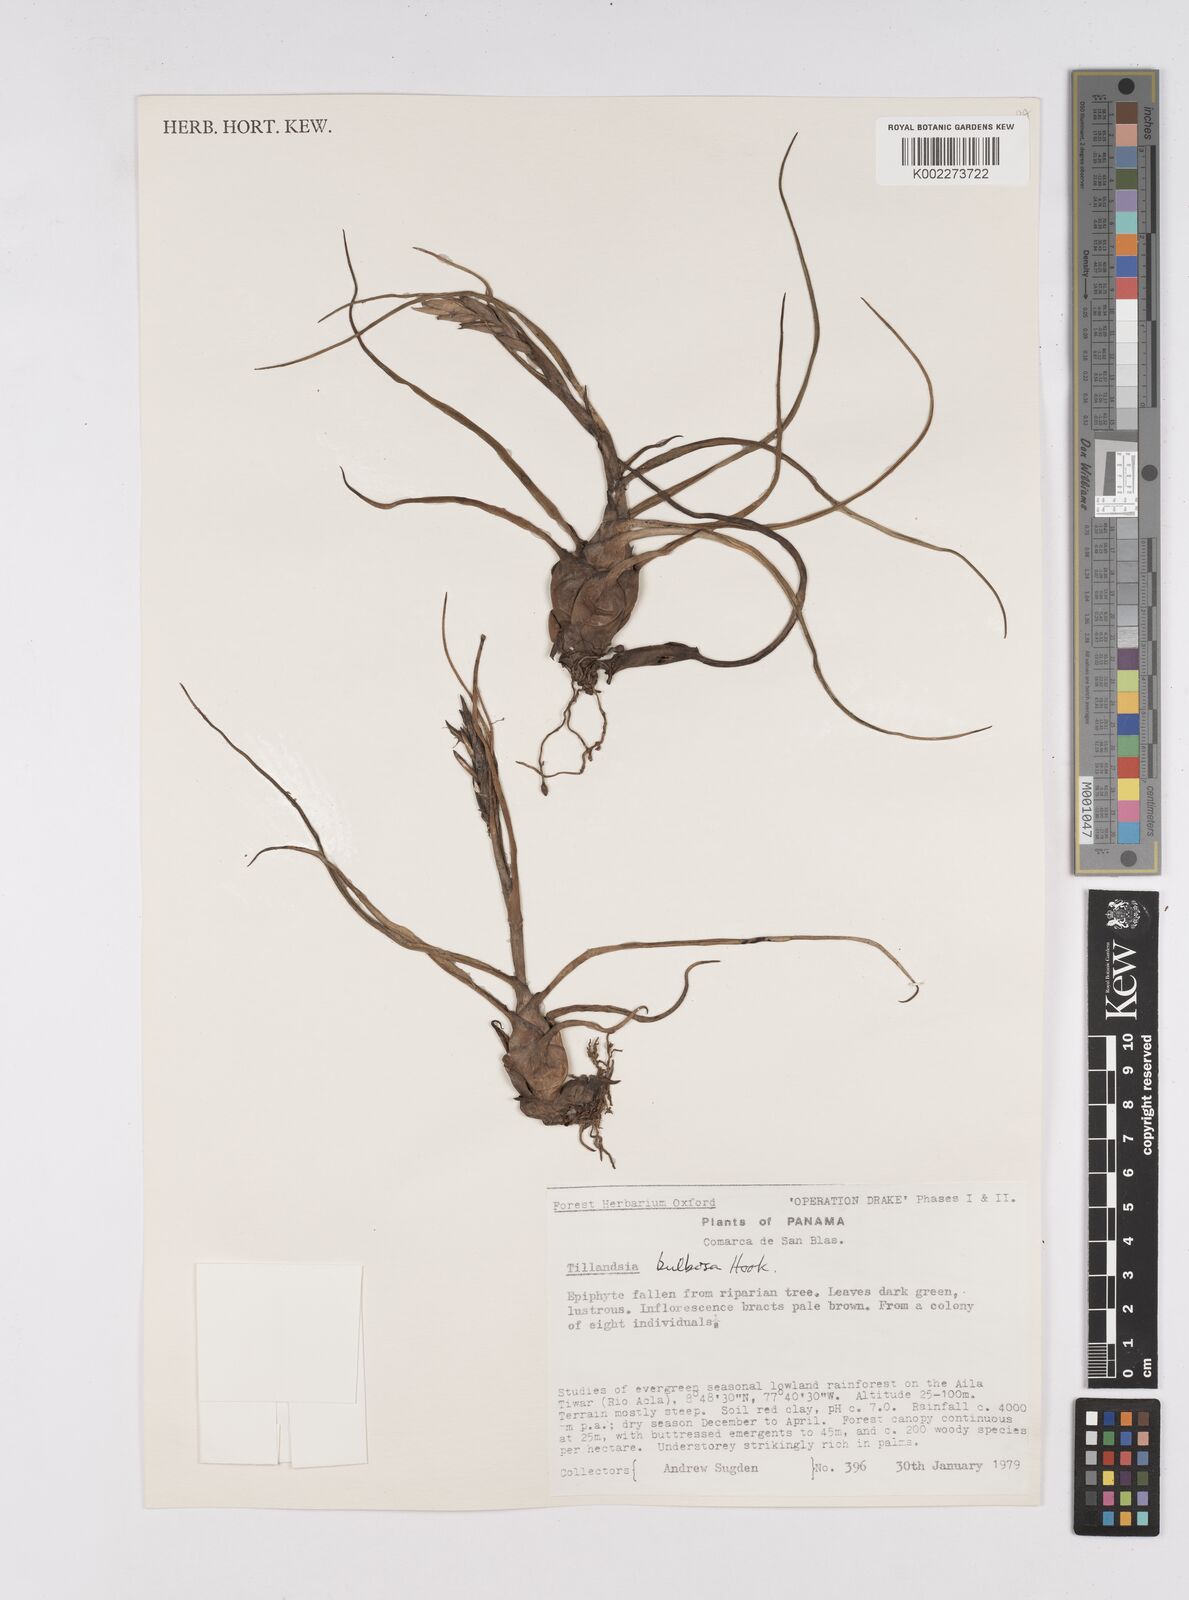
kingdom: Plantae
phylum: Tracheophyta
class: Liliopsida
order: Poales
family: Bromeliaceae
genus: Tillandsia
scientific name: Tillandsia bulbosa
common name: Bulbous airplant
